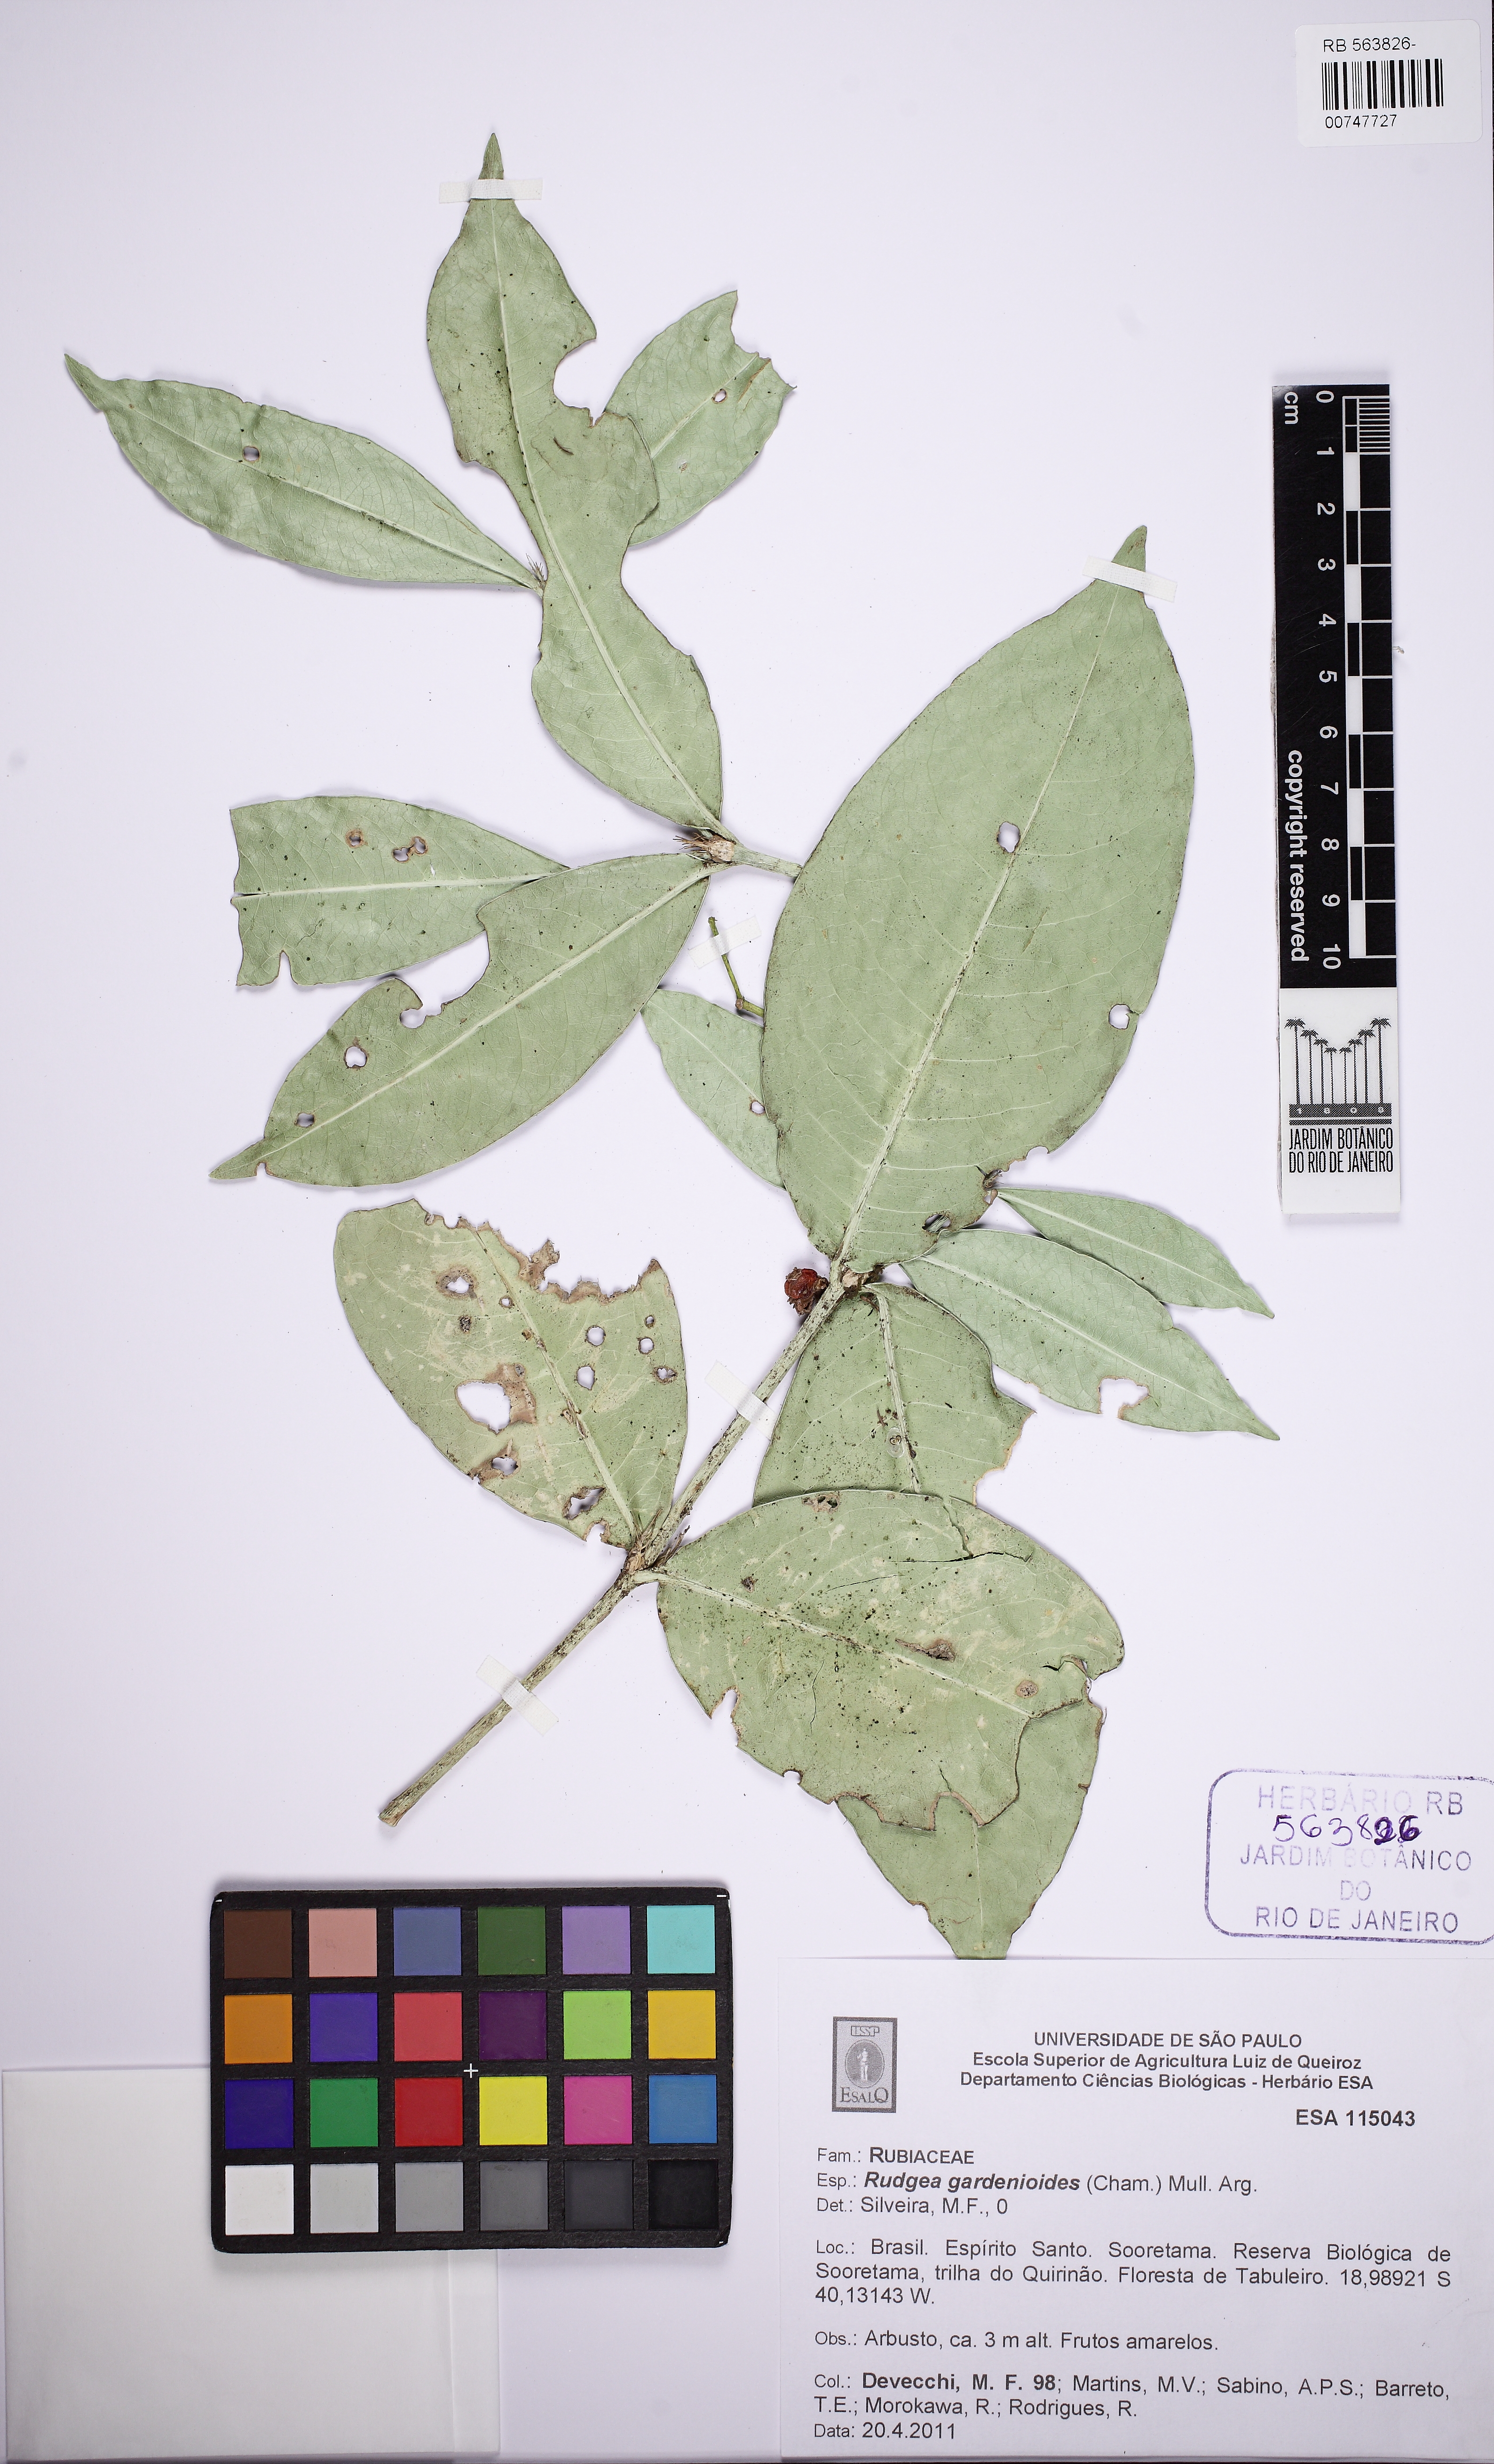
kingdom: Plantae
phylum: Tracheophyta
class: Magnoliopsida
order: Gentianales
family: Rubiaceae
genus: Rudgea
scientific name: Rudgea gardenioides
